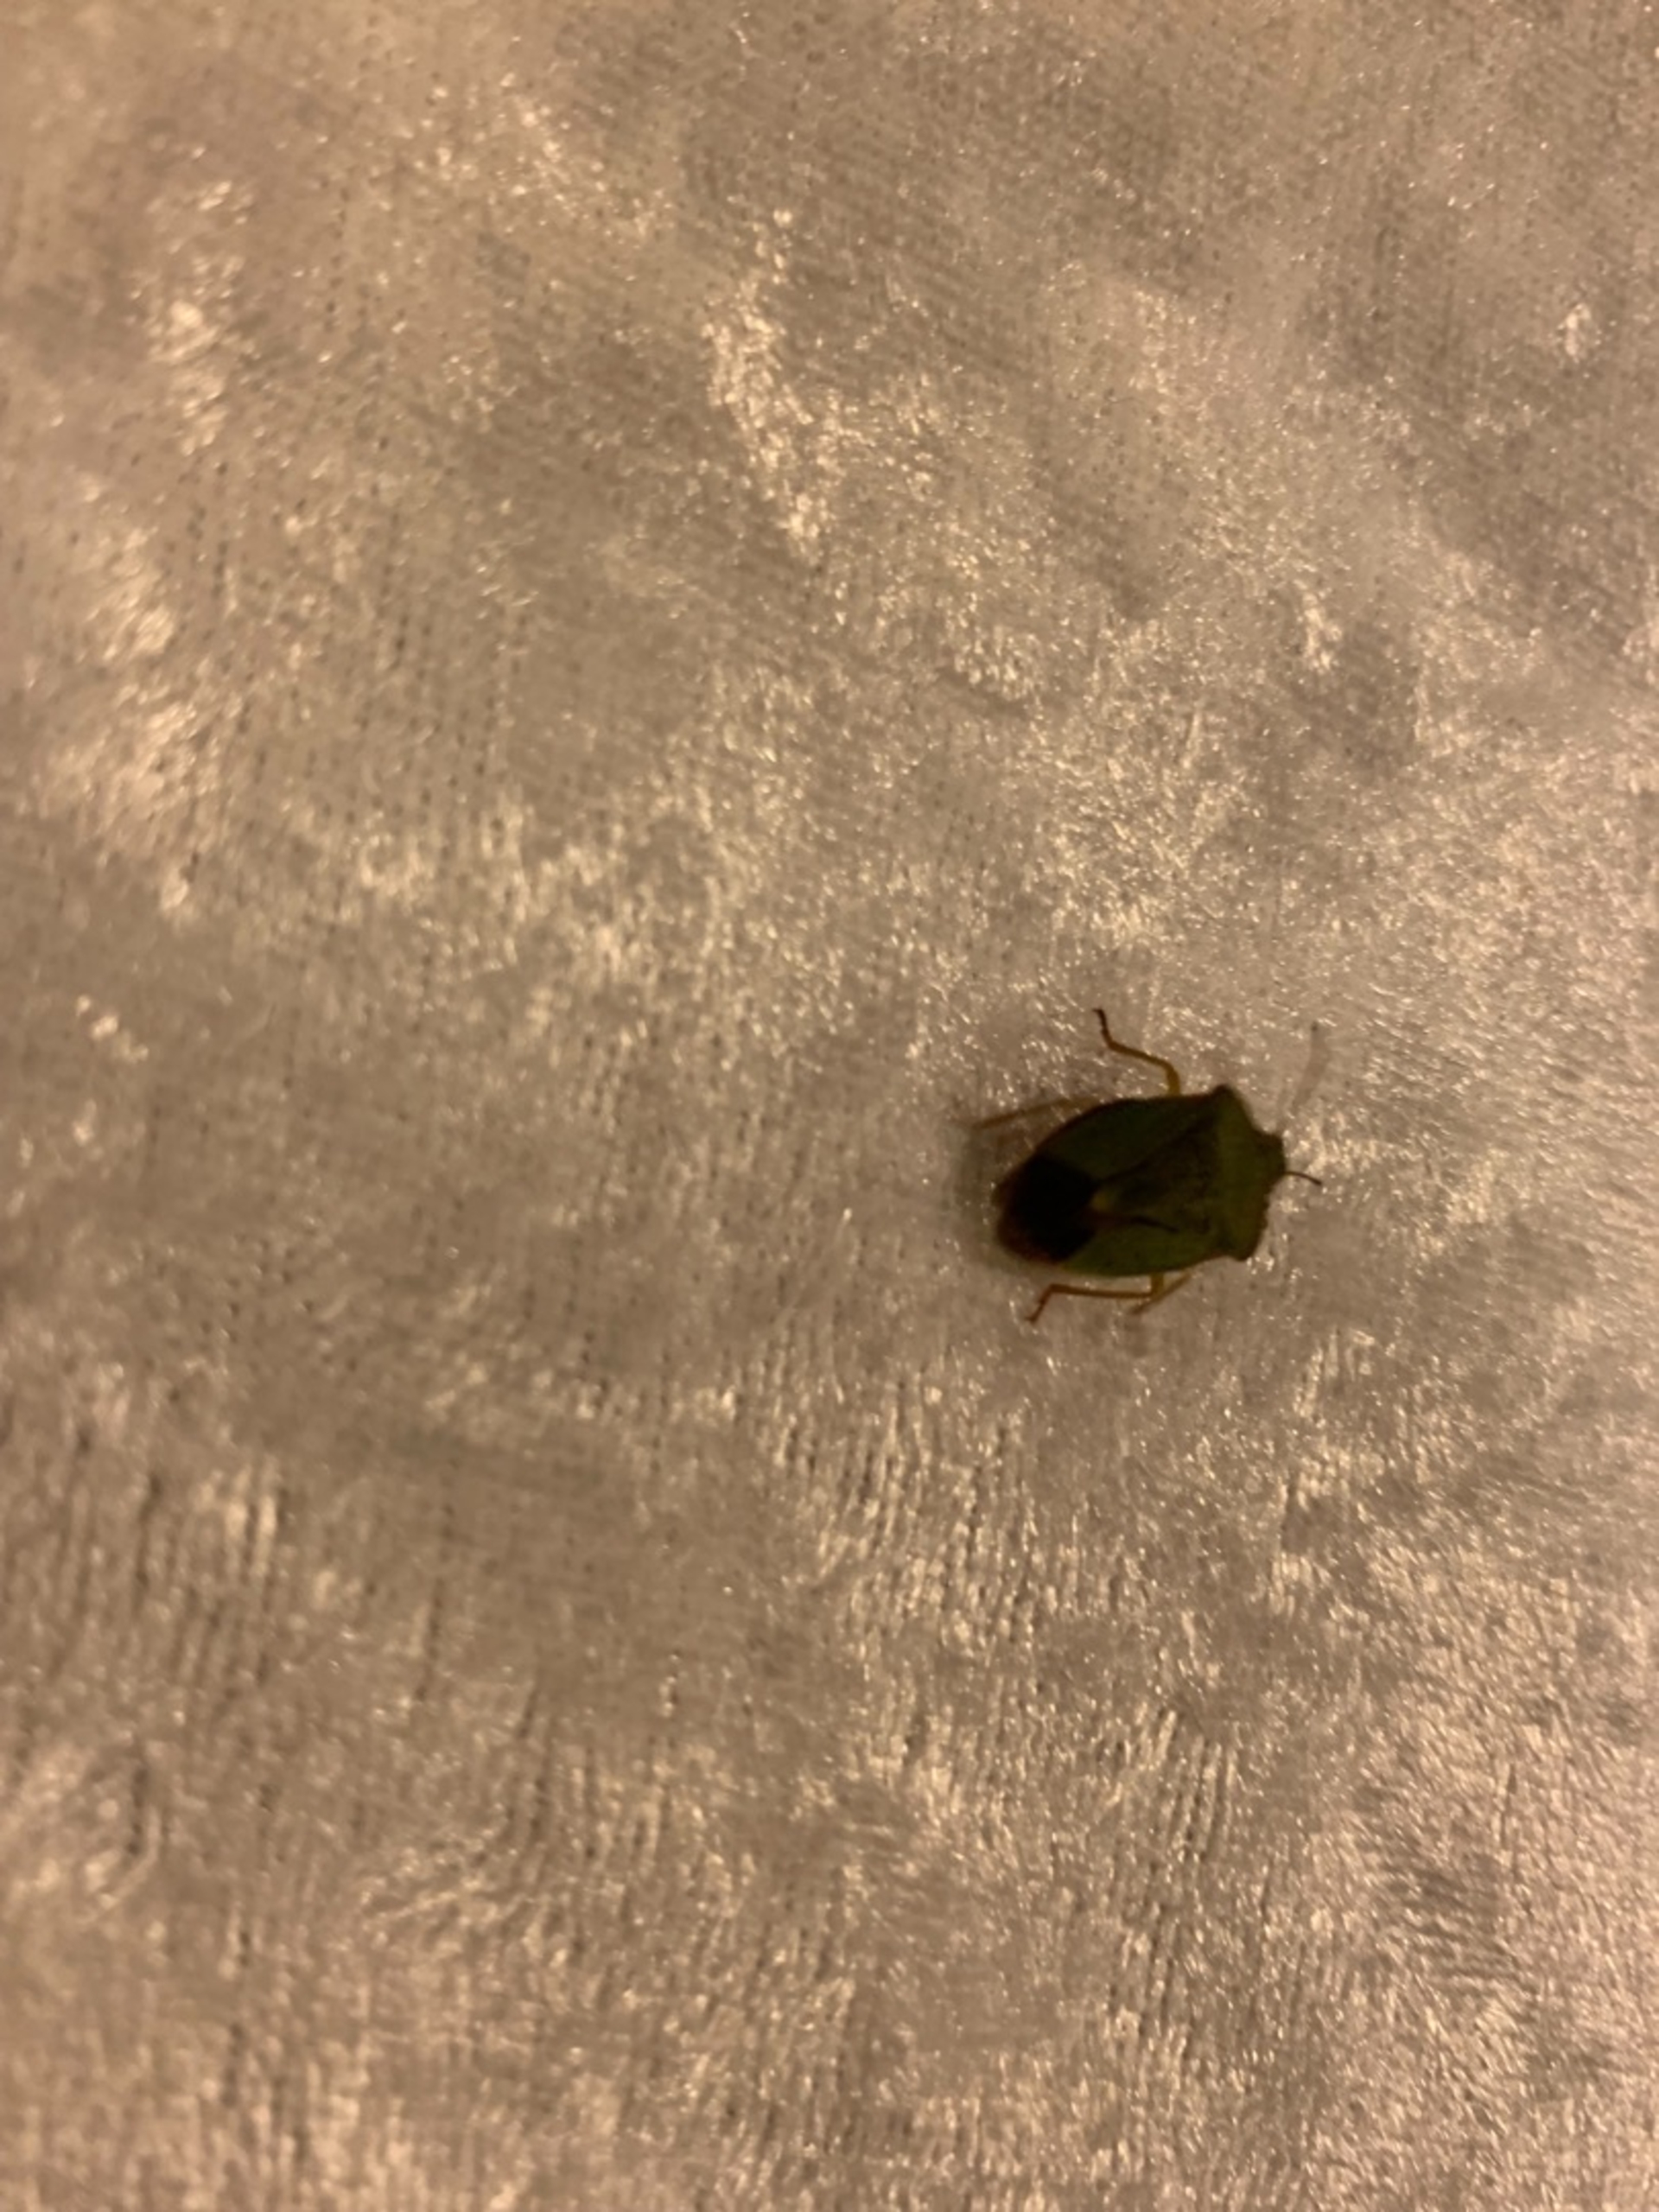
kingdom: Animalia
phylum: Arthropoda
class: Insecta
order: Hemiptera
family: Pentatomidae
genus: Palomena
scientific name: Palomena prasina
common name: Grøn bredtæge
